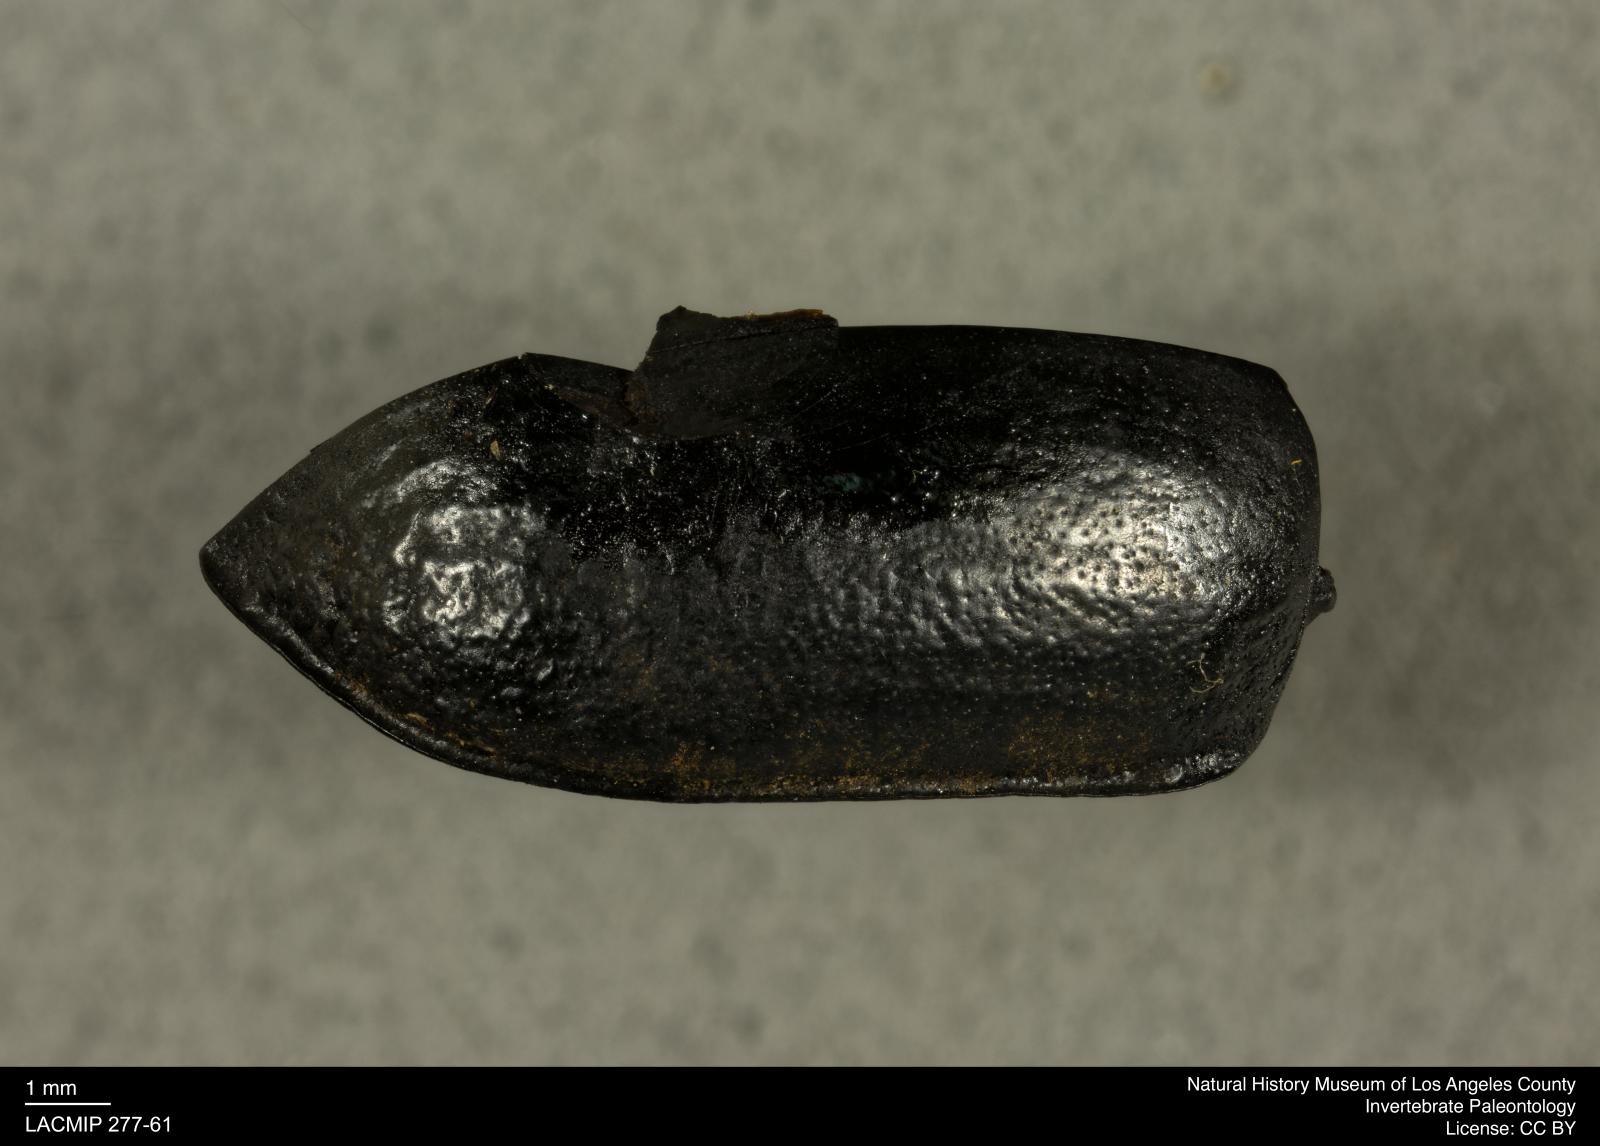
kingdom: Animalia
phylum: Arthropoda
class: Insecta
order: Coleoptera
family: Tenebrionidae
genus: Coniontis
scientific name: Coniontis abdominalis
